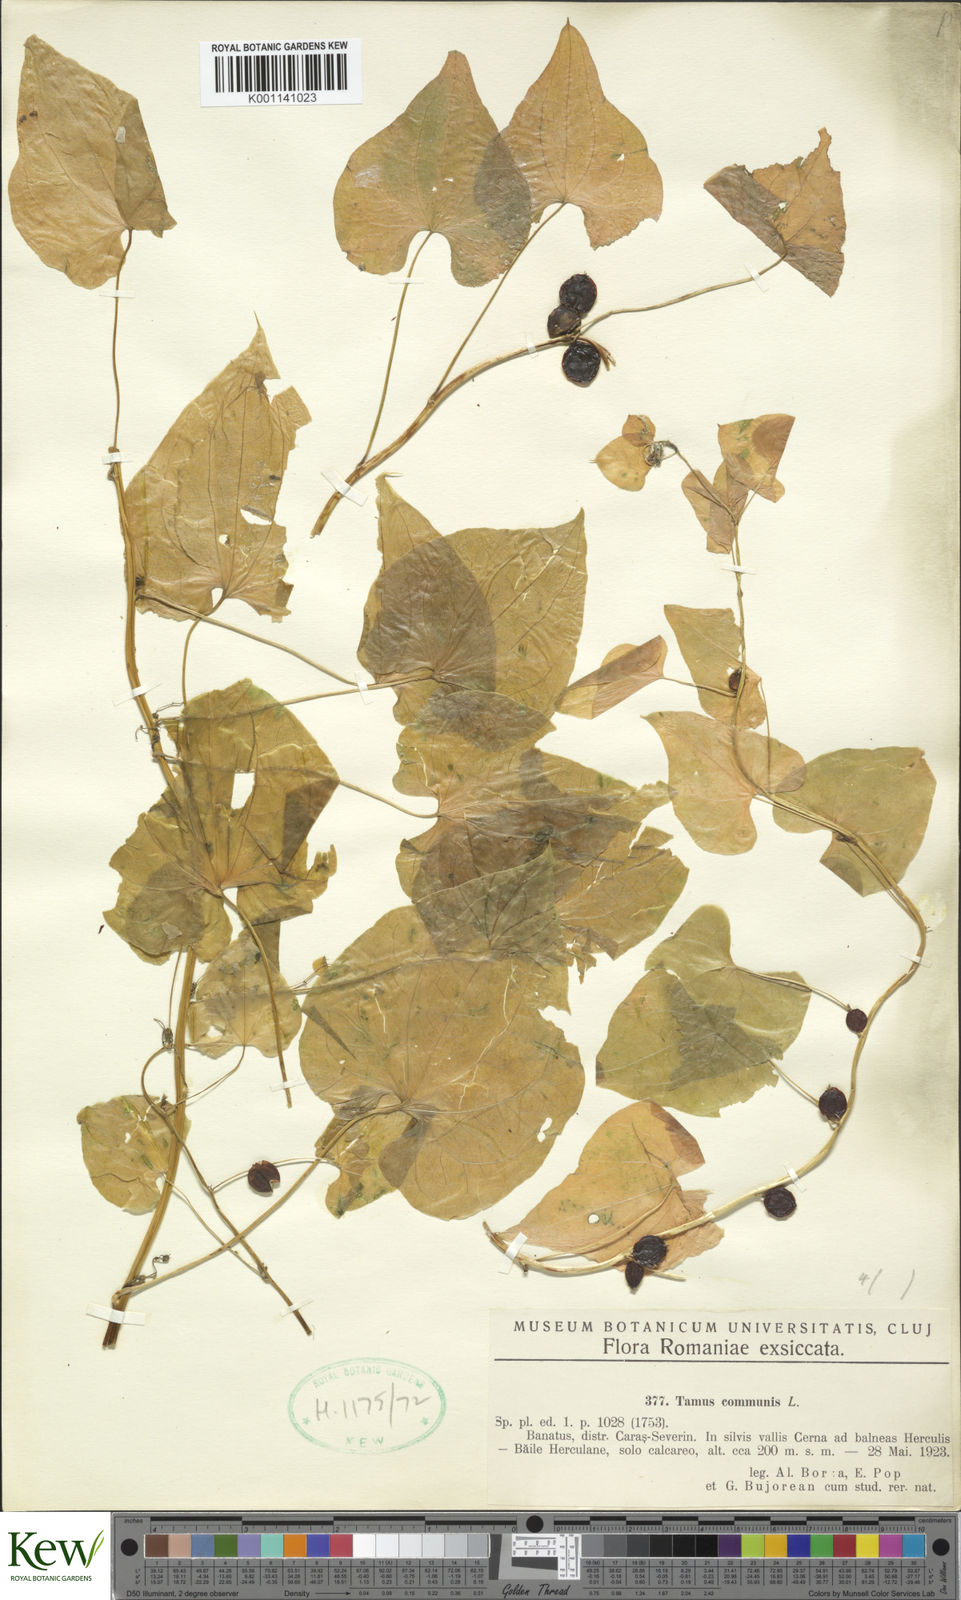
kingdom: Plantae
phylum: Tracheophyta
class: Liliopsida
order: Dioscoreales
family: Dioscoreaceae
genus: Dioscorea
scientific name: Dioscorea communis
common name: Black-bindweed
